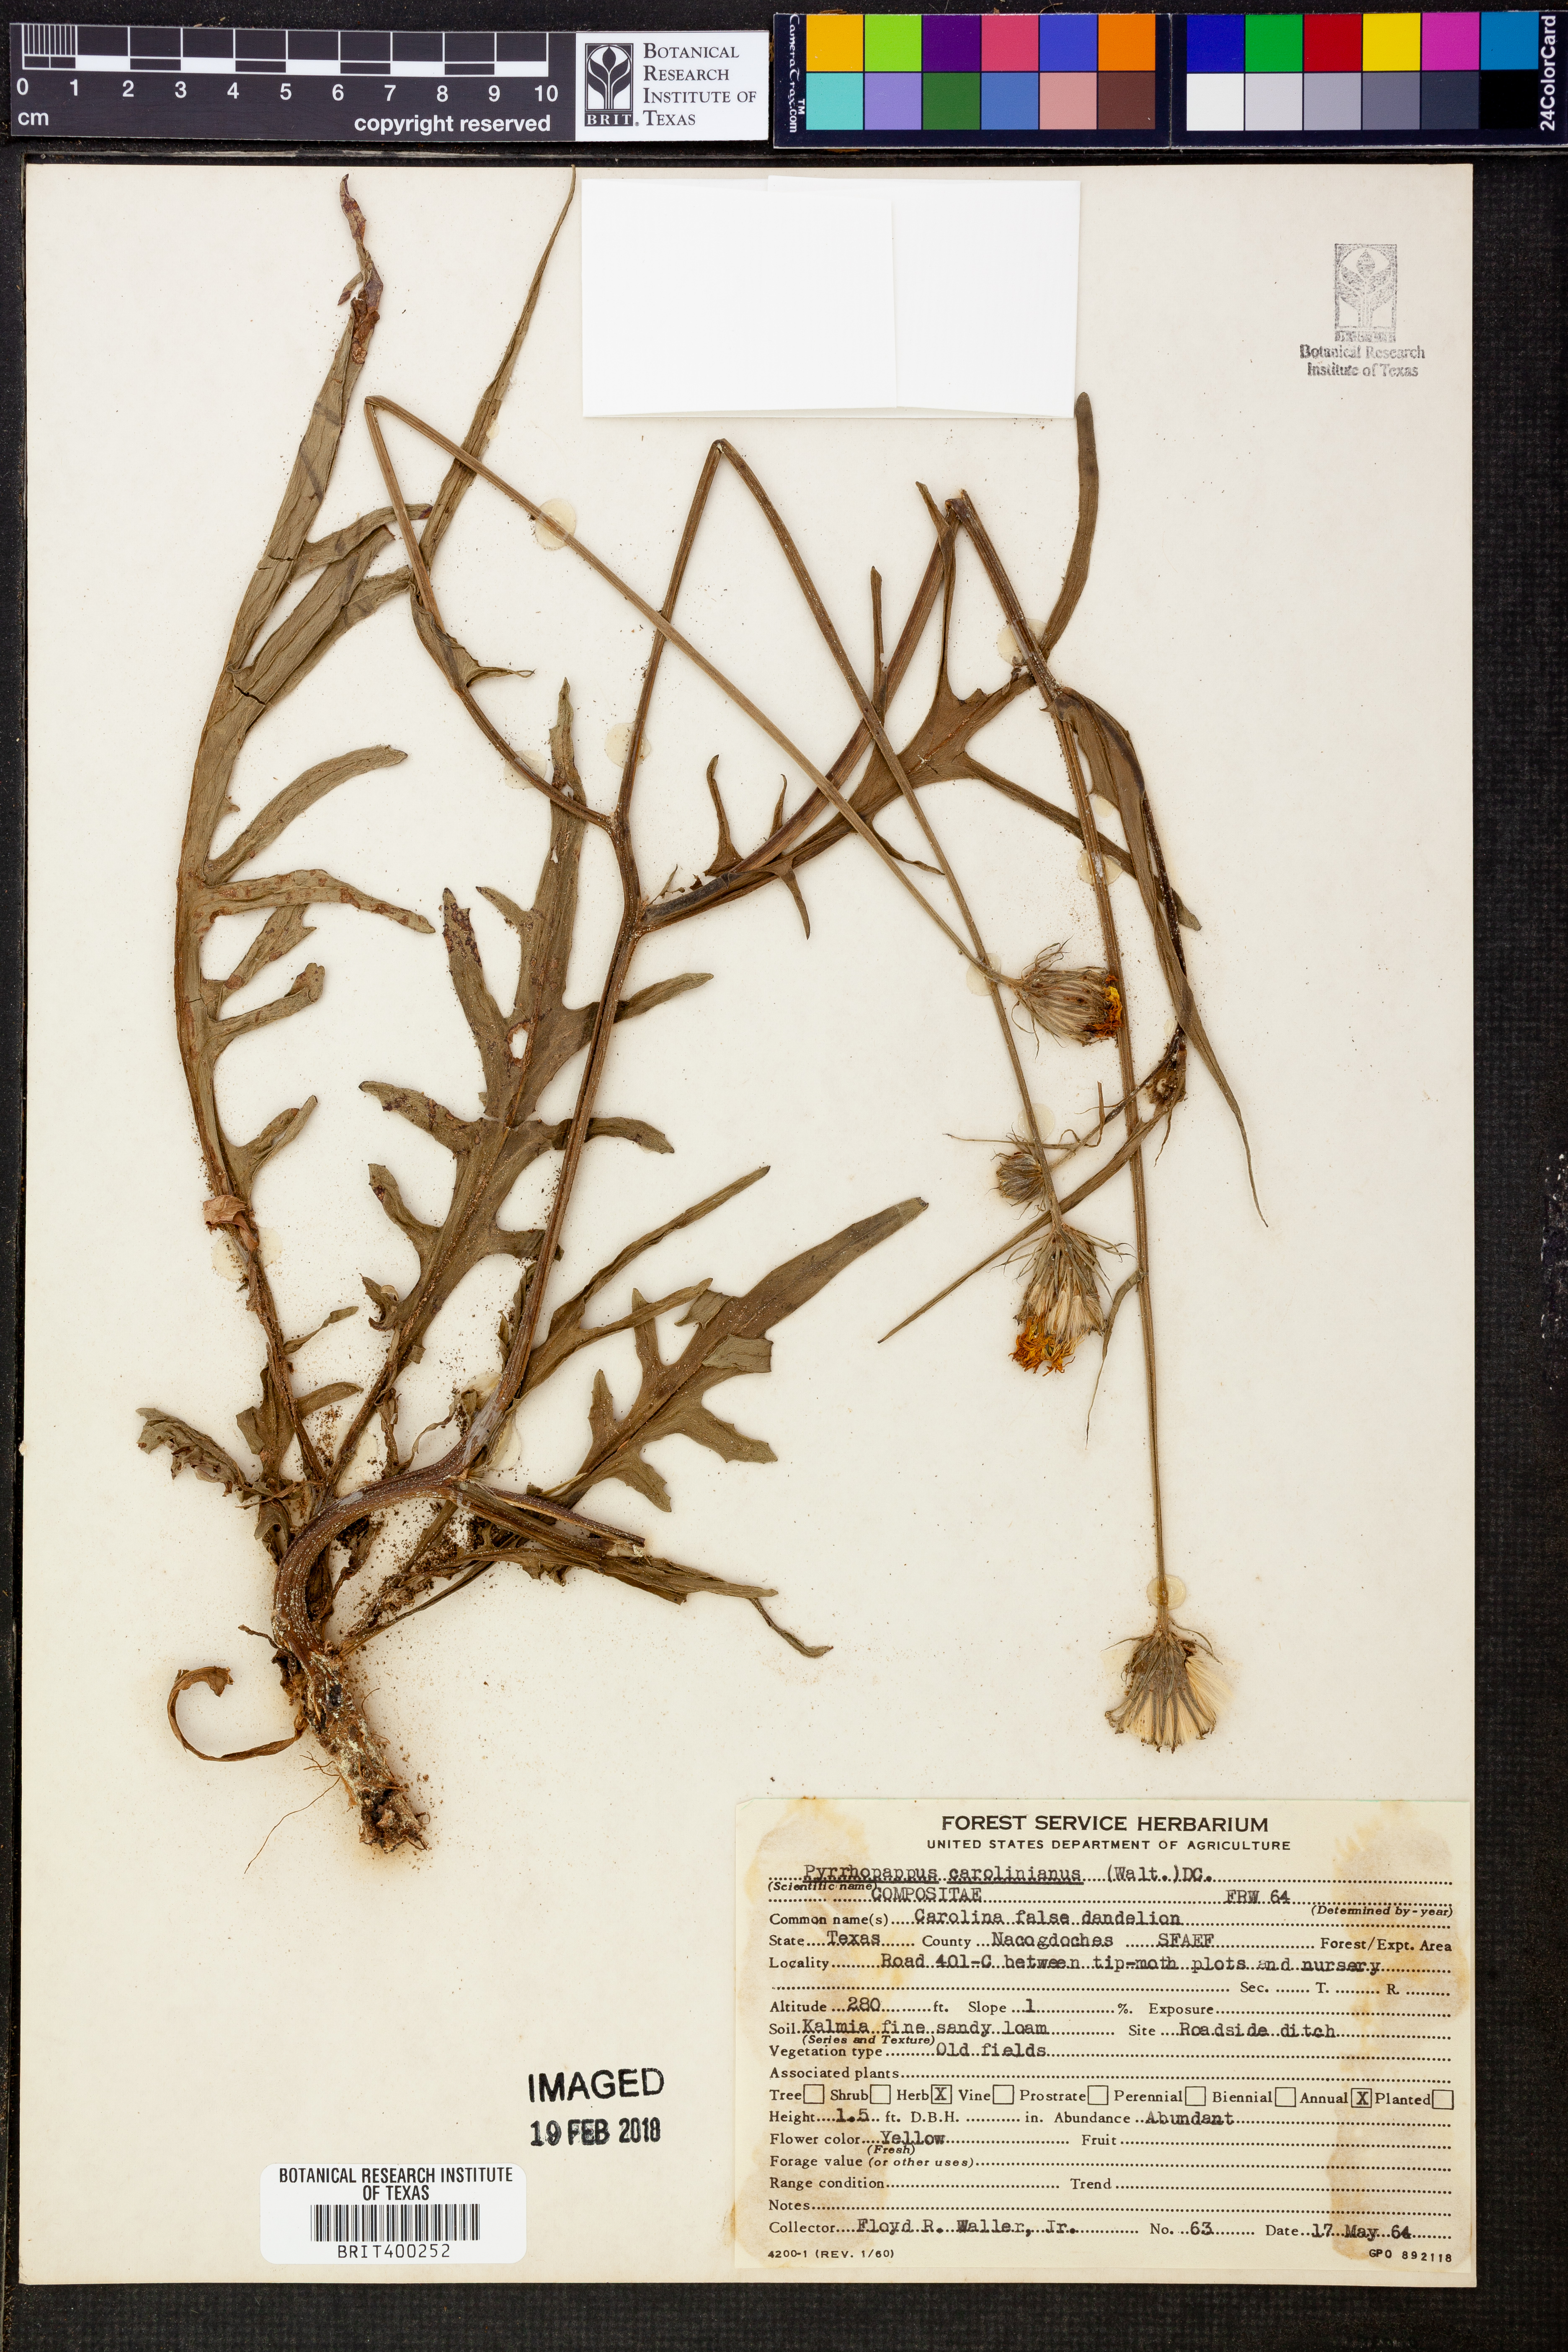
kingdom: Plantae
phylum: Tracheophyta
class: Magnoliopsida
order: Asterales
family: Asteraceae
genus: Pyrrhopappus
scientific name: Pyrrhopappus carolinianus
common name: Carolina desert-chicory
